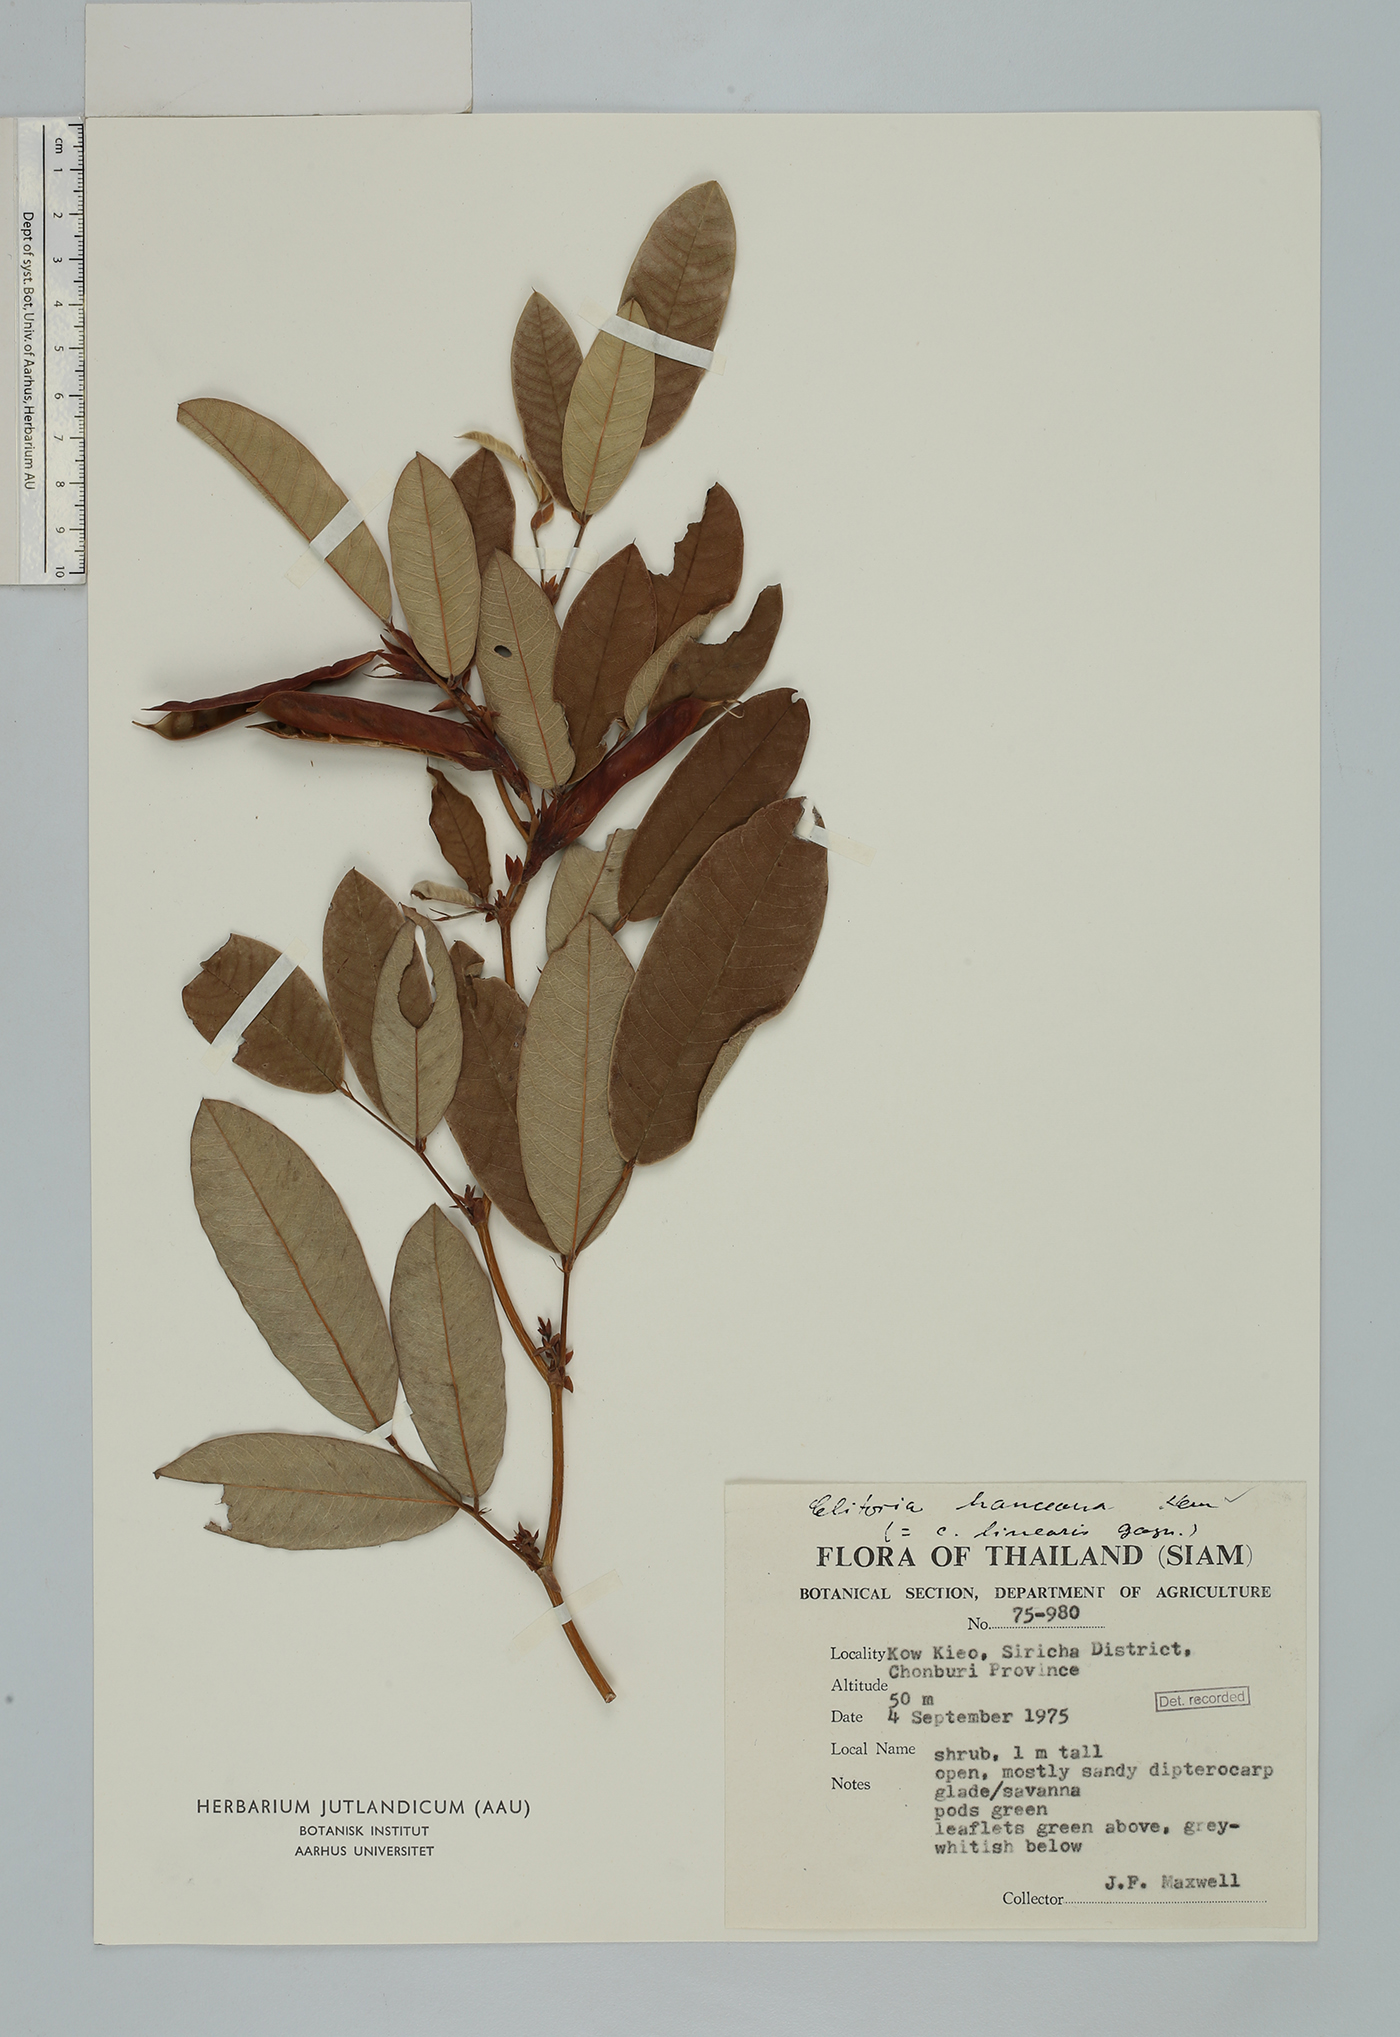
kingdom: Plantae
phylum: Tracheophyta
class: Magnoliopsida
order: Fabales
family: Fabaceae
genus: Clitoria
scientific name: Clitoria hanceana
